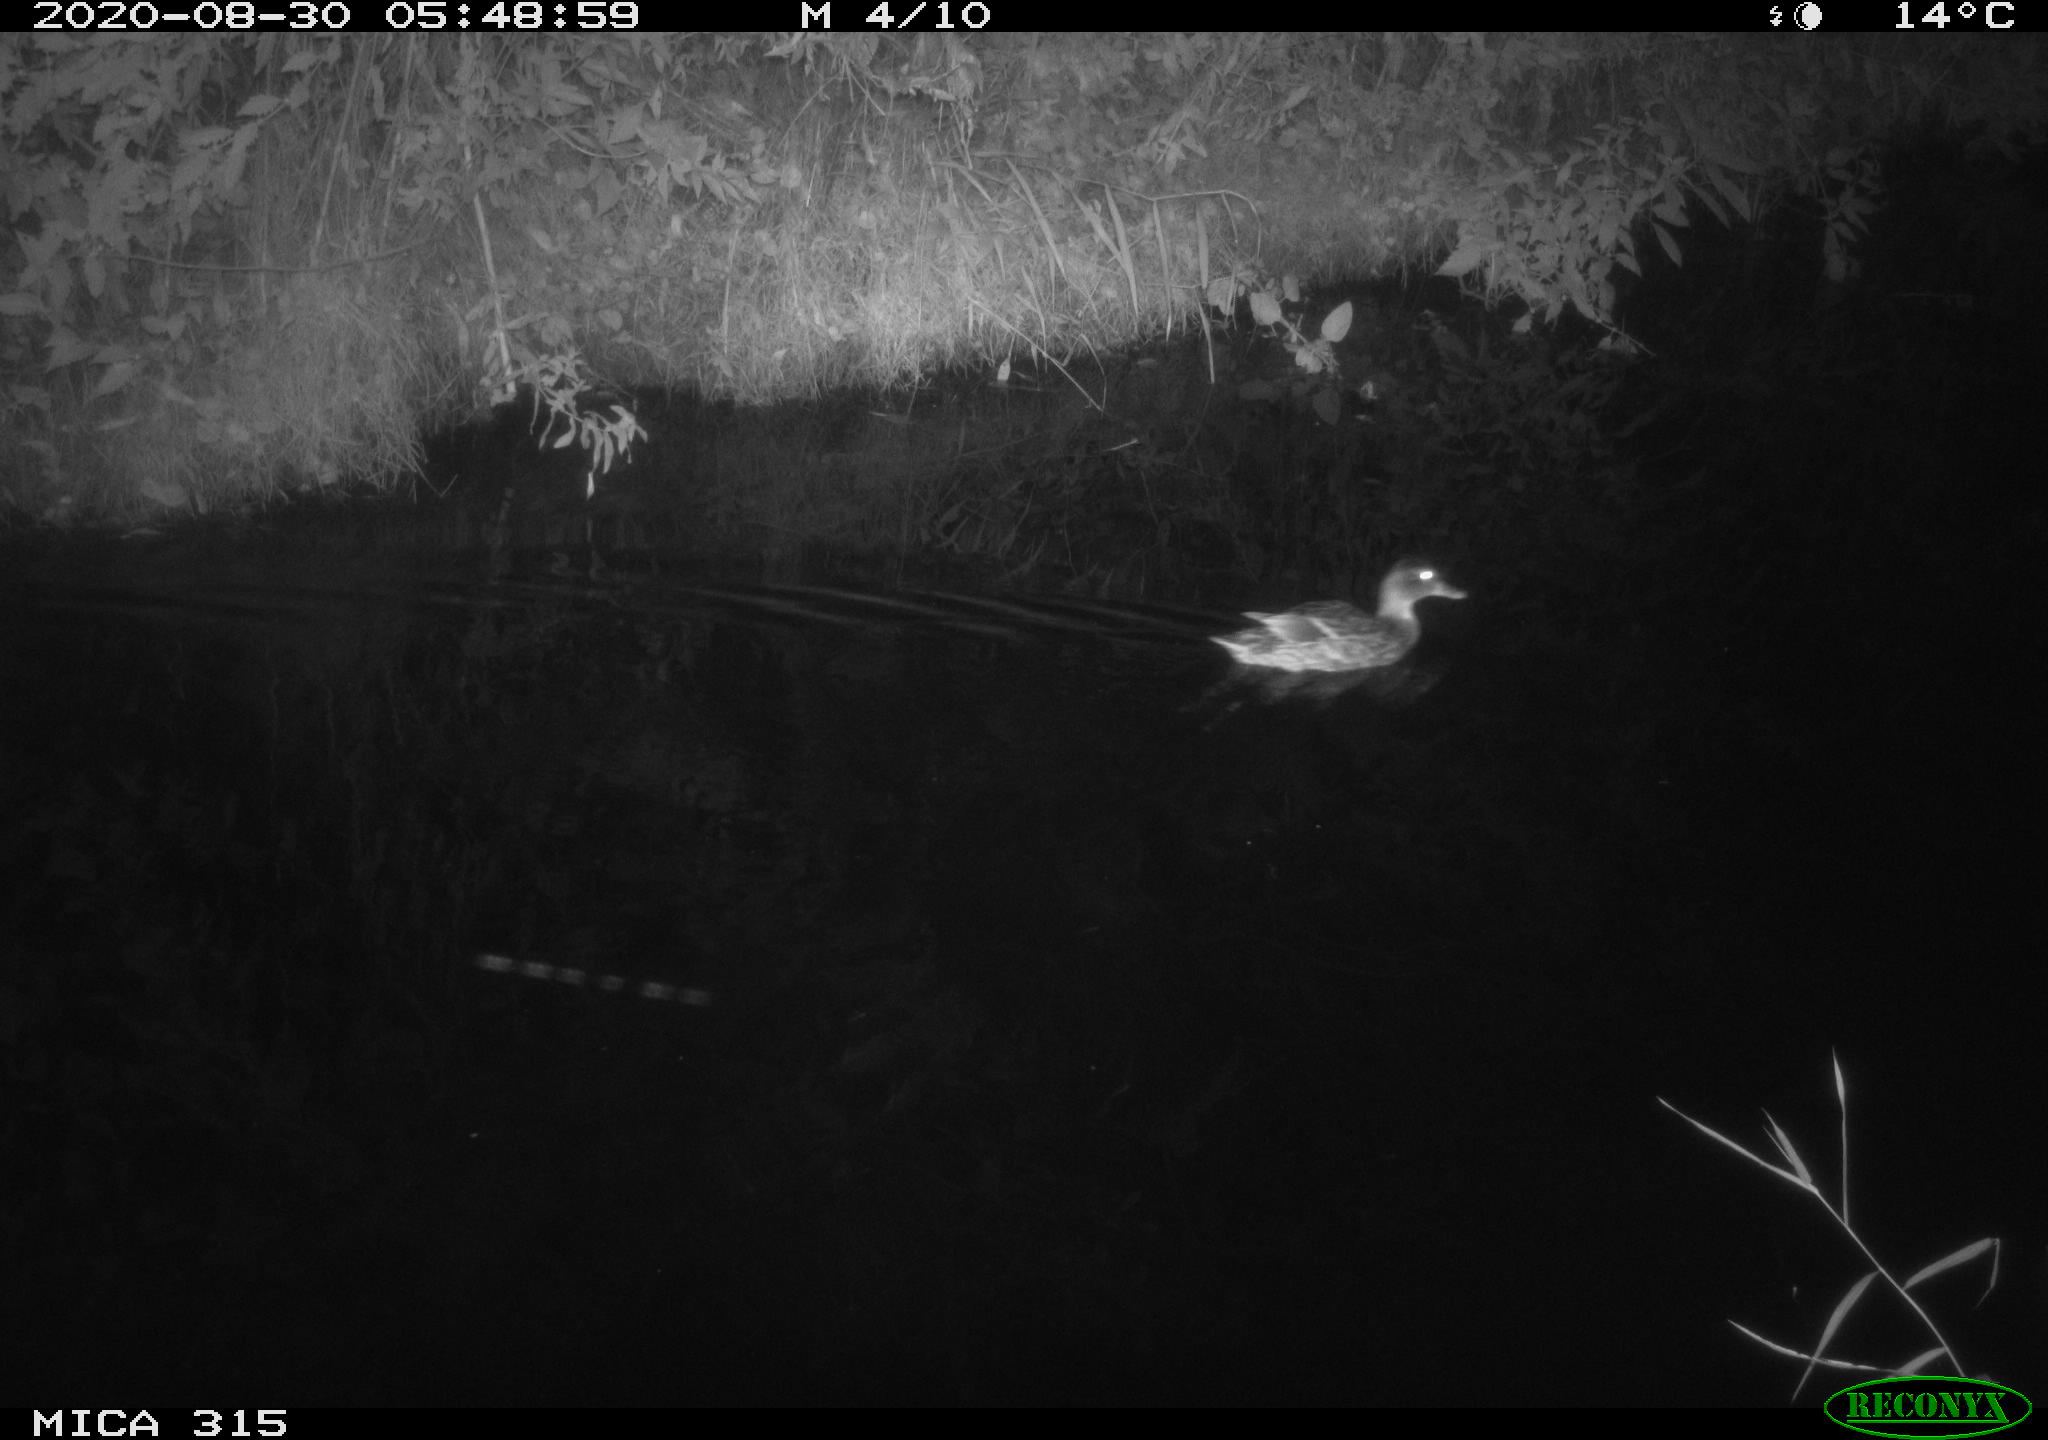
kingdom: Animalia
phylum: Chordata
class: Aves
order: Anseriformes
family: Anatidae
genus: Anas
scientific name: Anas platyrhynchos
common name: Mallard
